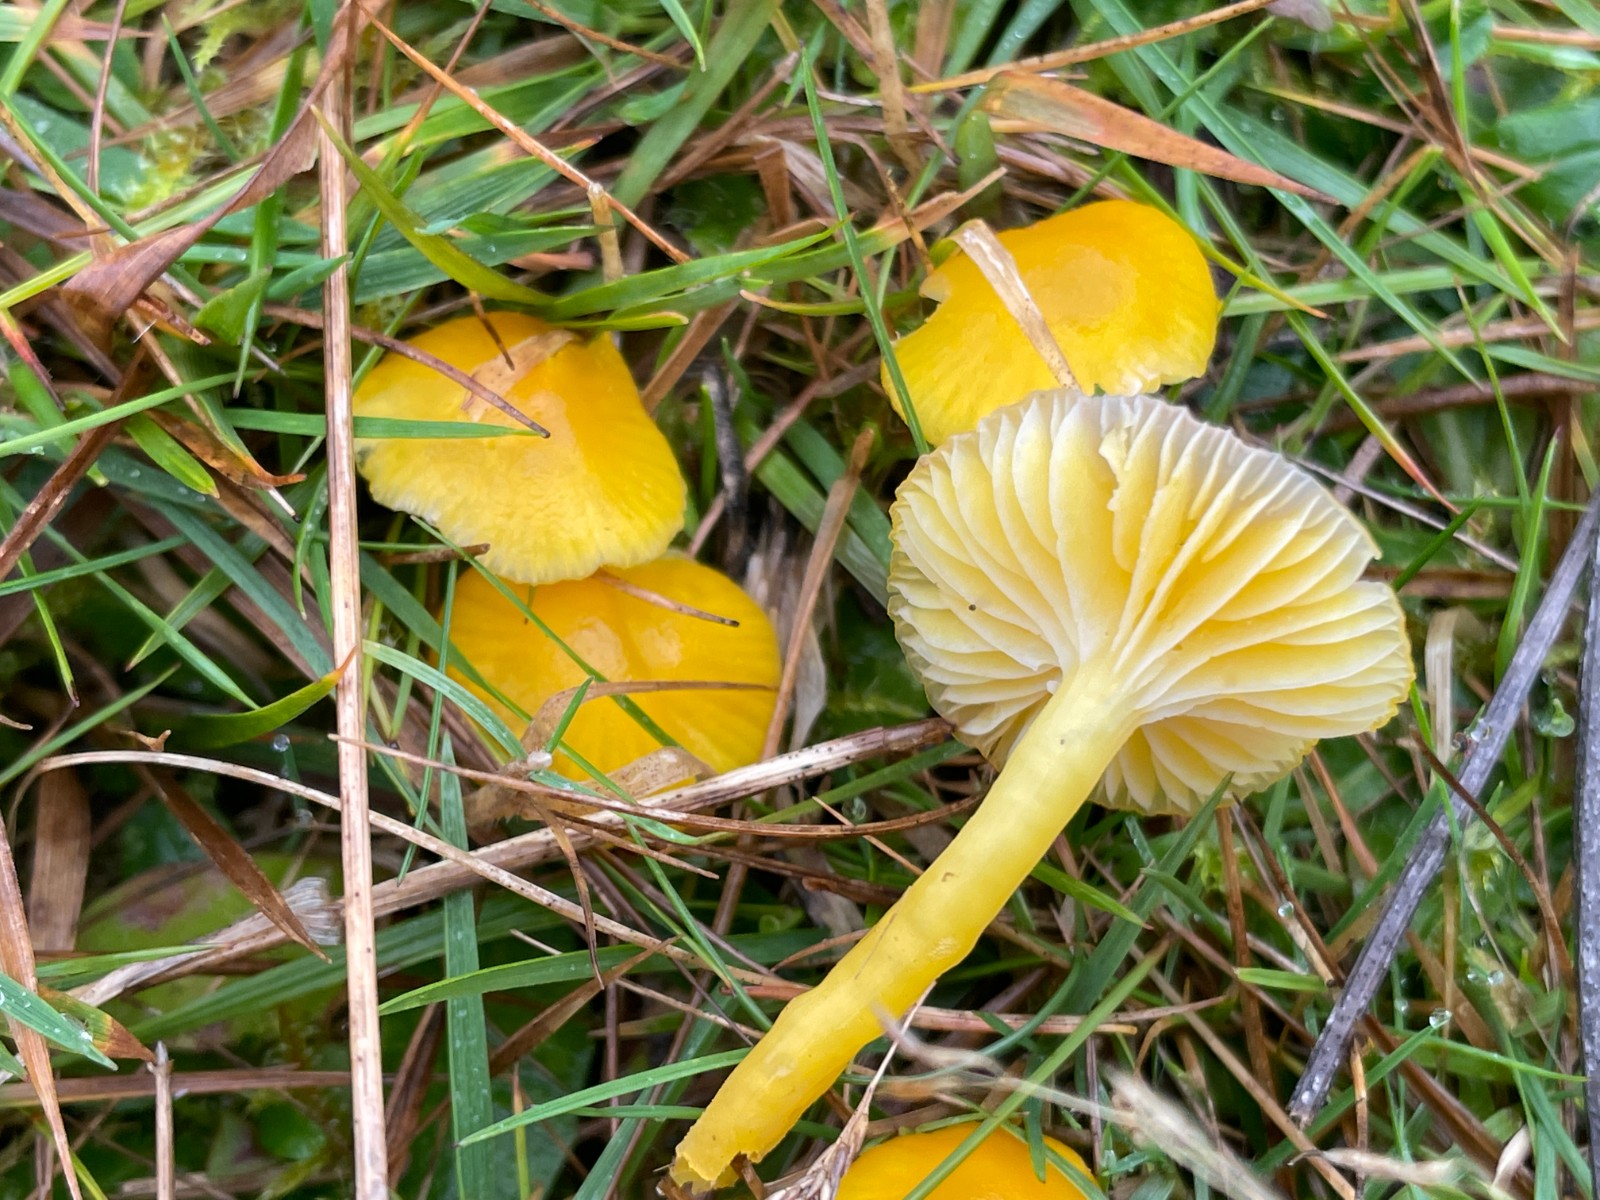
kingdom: Fungi
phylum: Basidiomycota
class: Agaricomycetes
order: Agaricales
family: Hygrophoraceae
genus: Hygrocybe
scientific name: Hygrocybe ceracea
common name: voksgul vokshat
